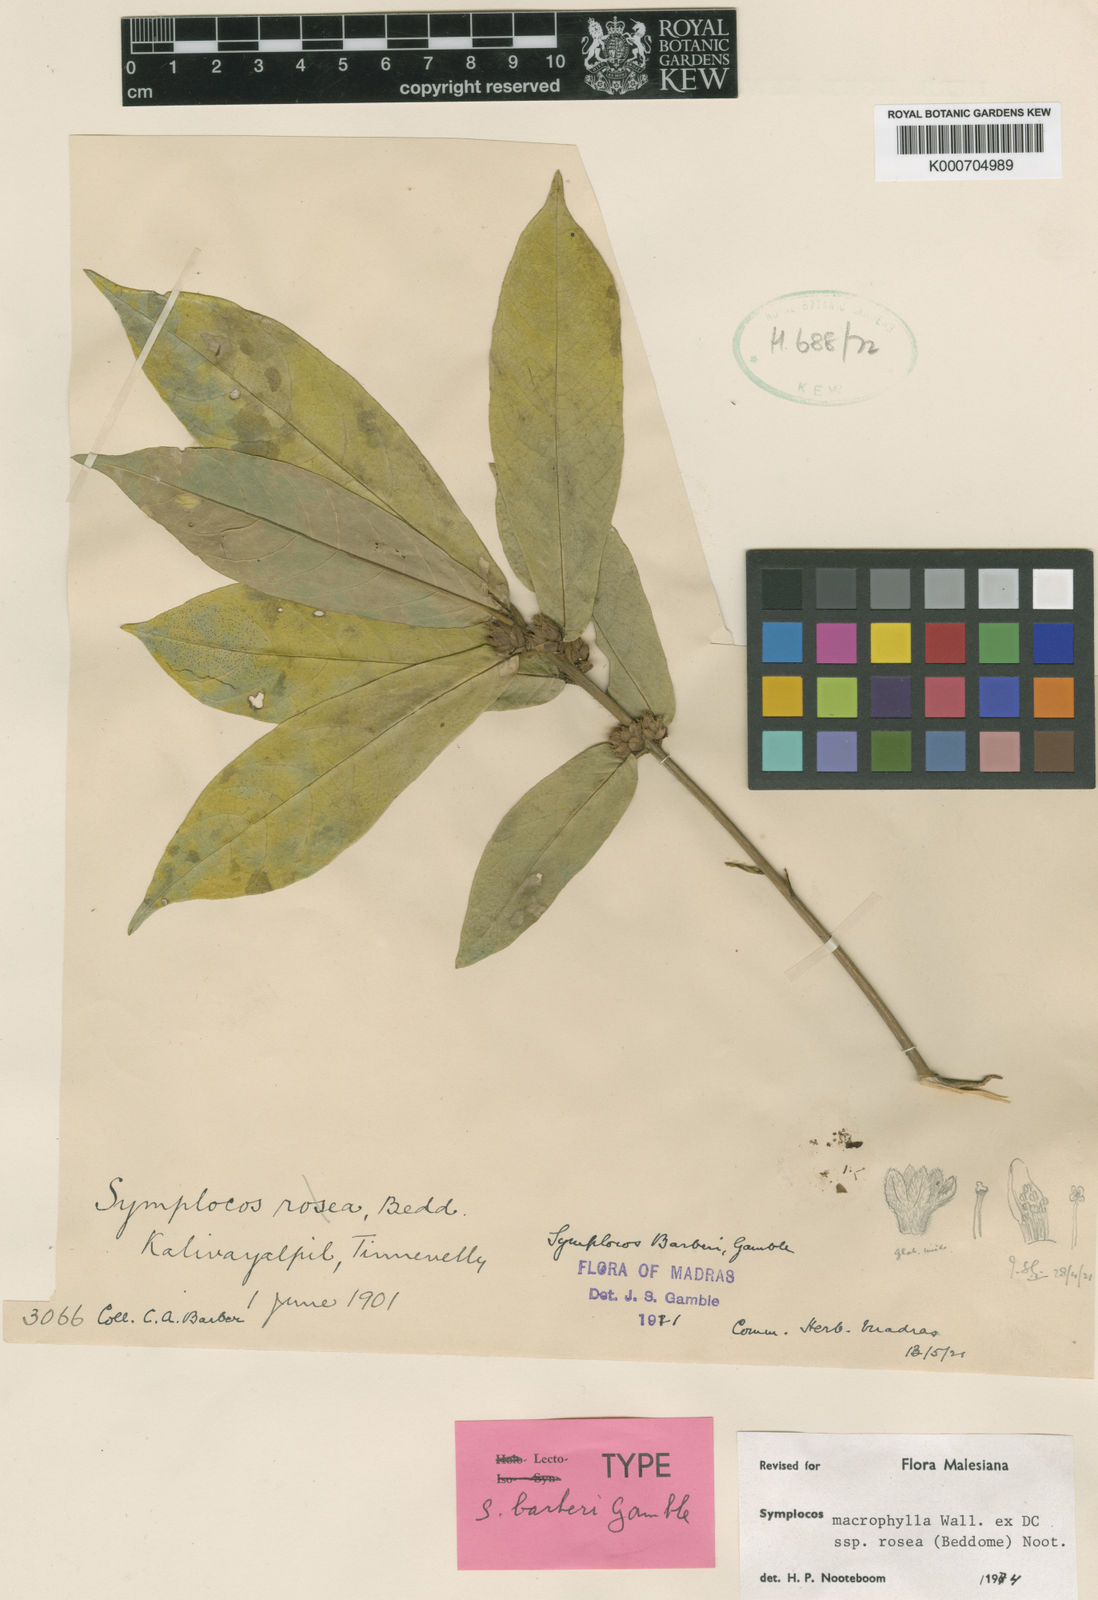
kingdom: Plantae
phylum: Tracheophyta
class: Magnoliopsida
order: Ericales
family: Symplocaceae
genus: Symplocos
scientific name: Symplocos macrophylla
